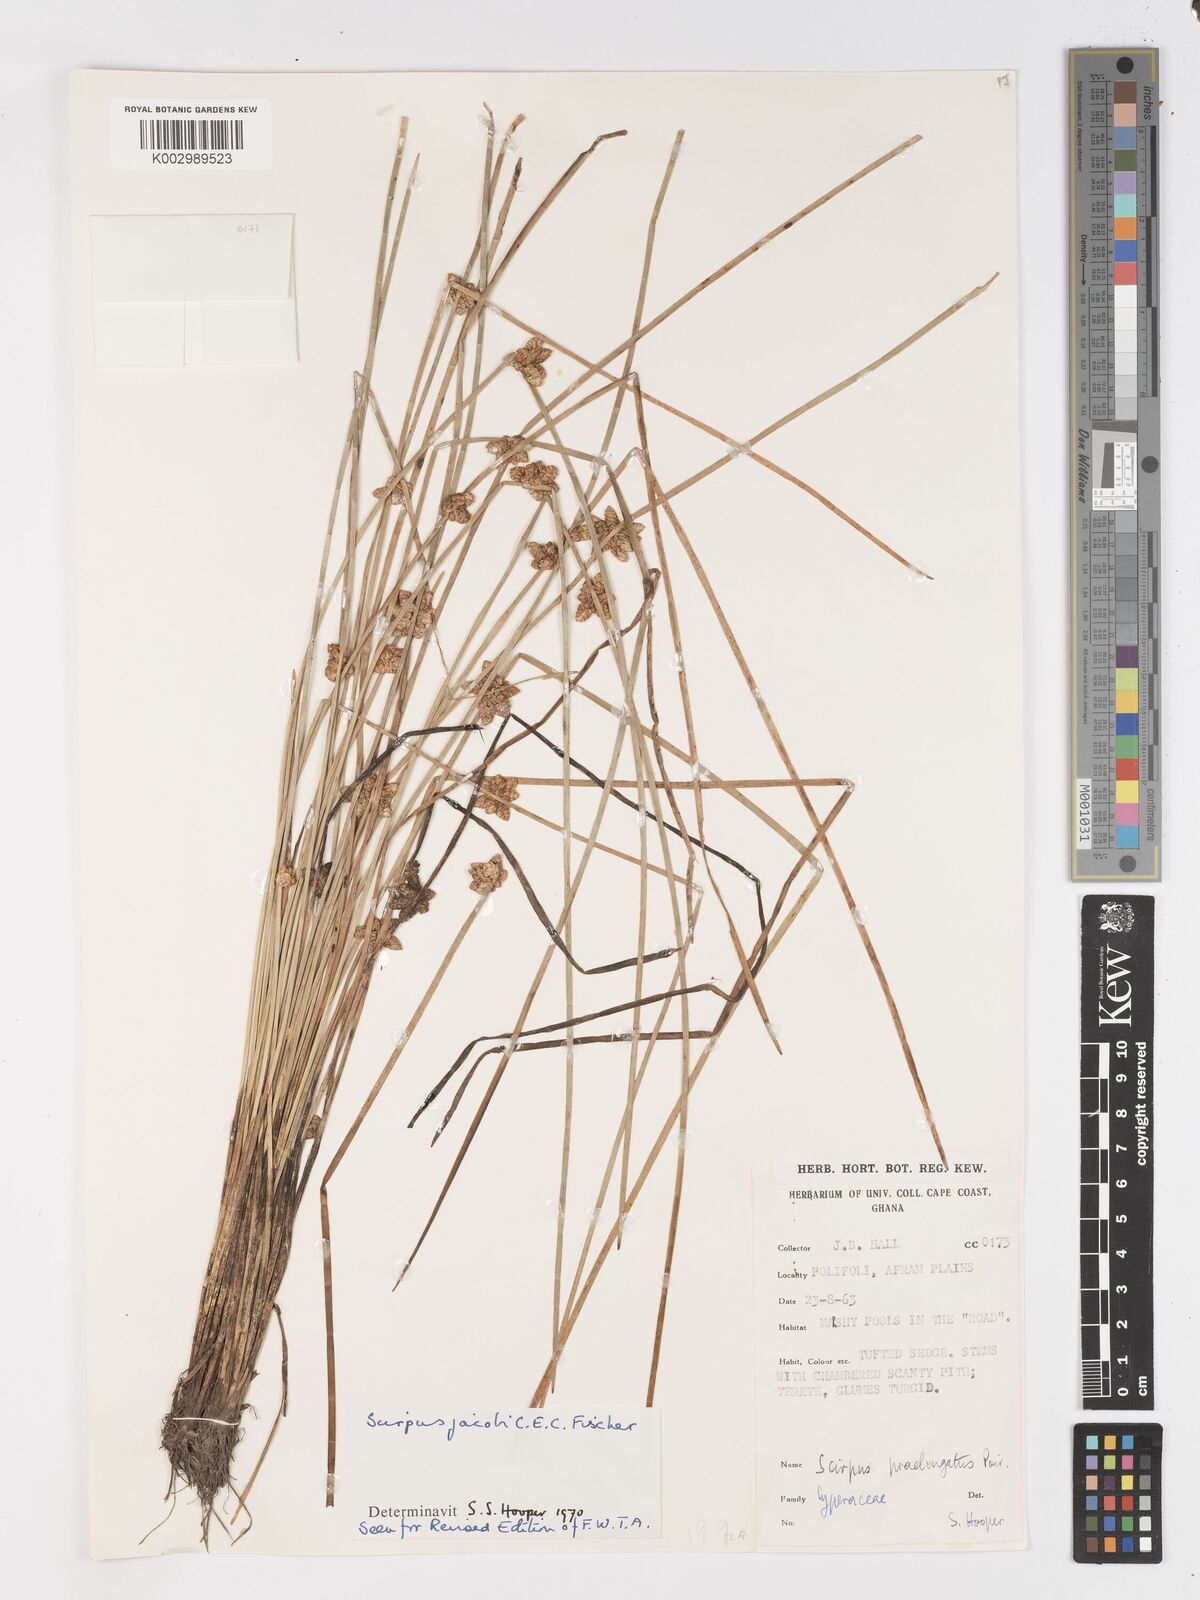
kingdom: Plantae
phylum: Tracheophyta
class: Liliopsida
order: Poales
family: Cyperaceae
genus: Schoenoplectiella
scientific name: Schoenoplectiella senegalensis
